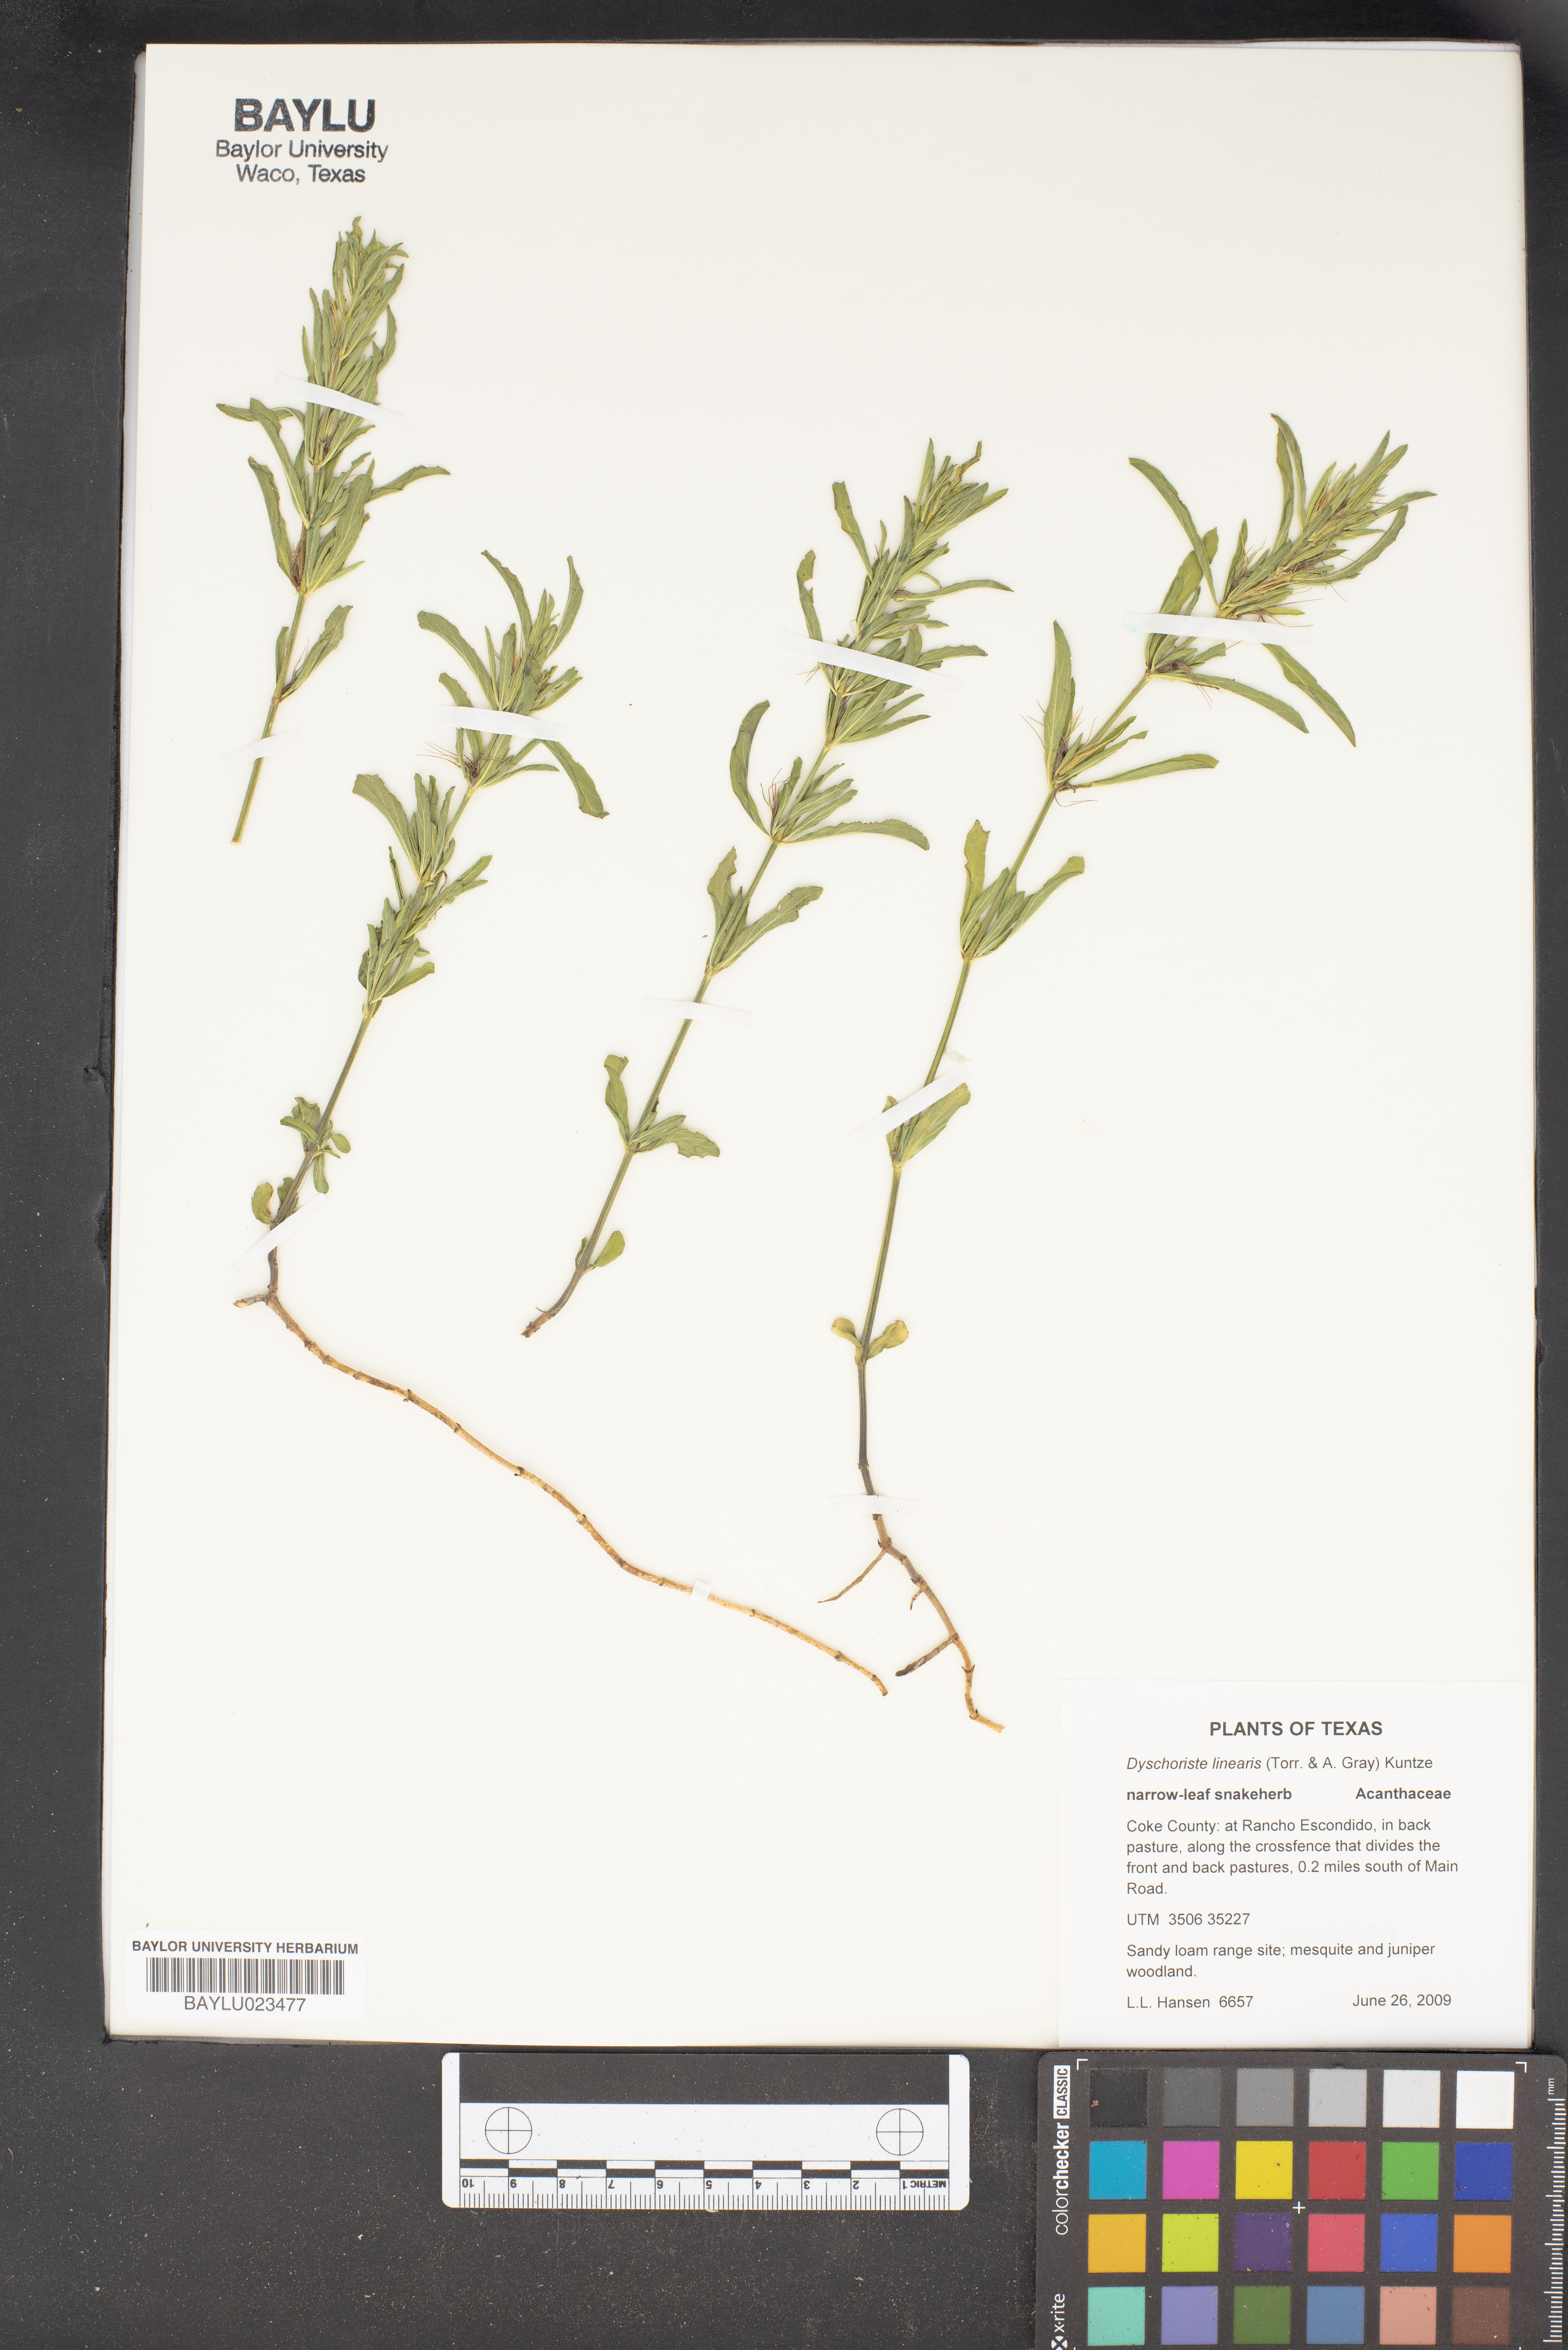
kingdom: Plantae
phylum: Tracheophyta
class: Magnoliopsida
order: Lamiales
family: Acanthaceae
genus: Dyschoriste
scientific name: Dyschoriste linearis
